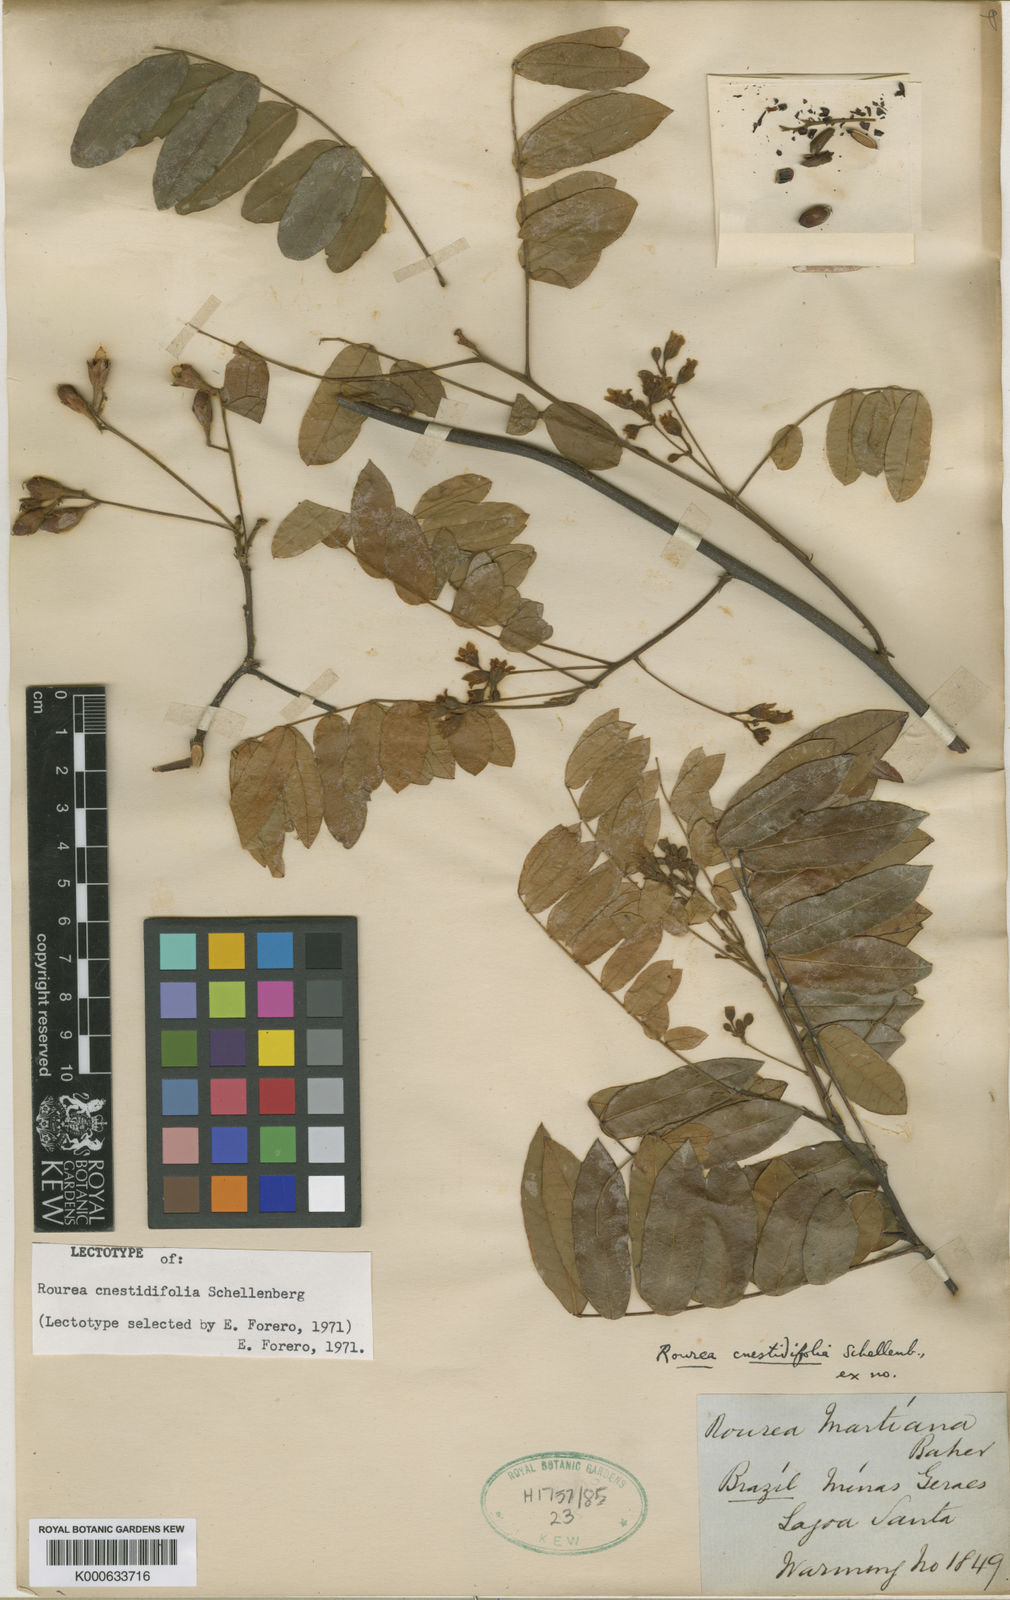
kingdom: Plantae
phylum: Tracheophyta
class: Magnoliopsida
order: Oxalidales
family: Connaraceae
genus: Rourea
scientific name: Rourea cnestidifolia
